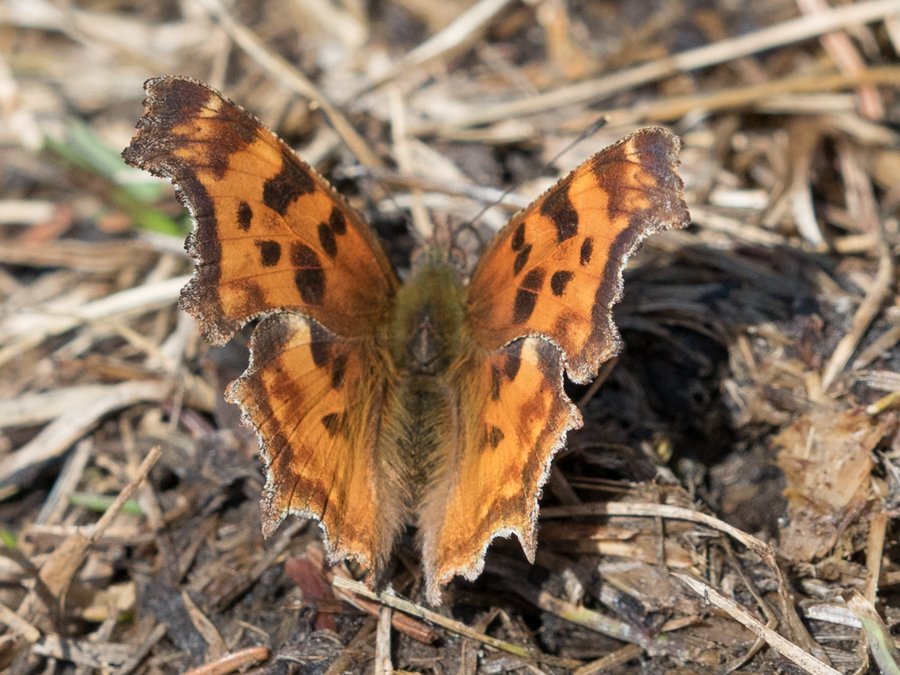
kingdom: Animalia
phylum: Arthropoda
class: Insecta
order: Lepidoptera
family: Nymphalidae
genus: Polygonia
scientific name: Polygonia satyrus
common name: Satyr Comma
